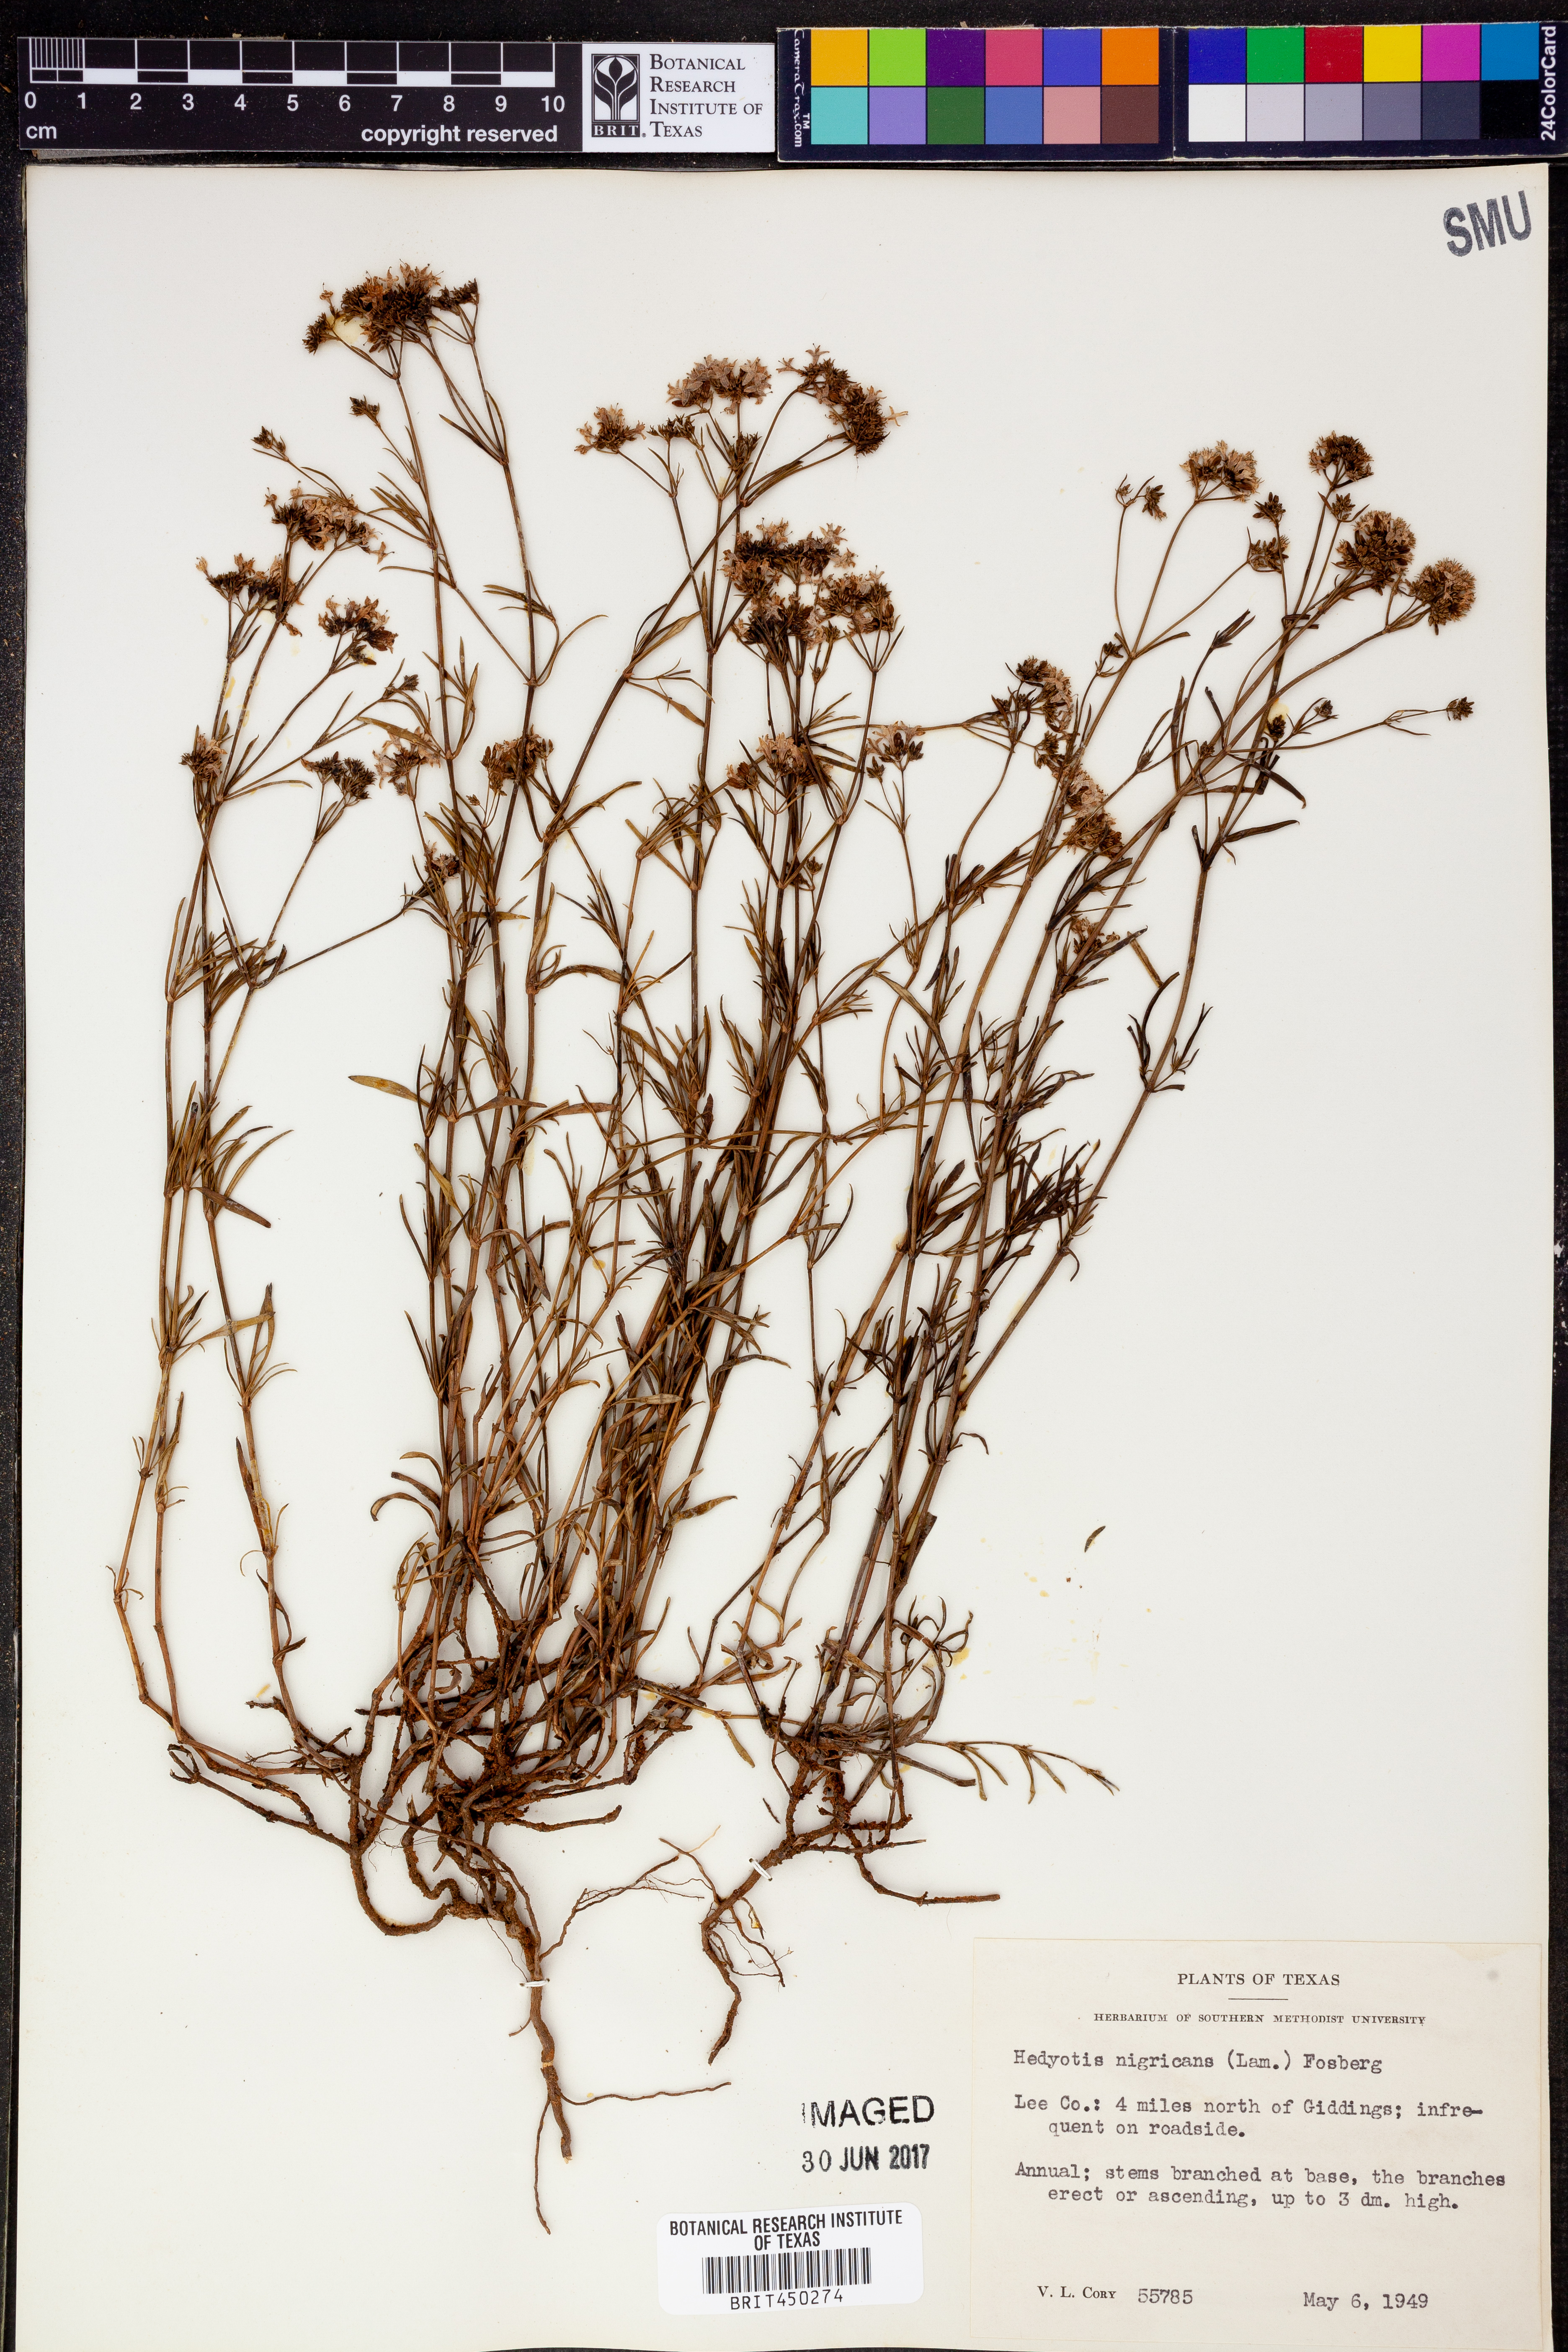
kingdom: Plantae
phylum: Tracheophyta
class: Magnoliopsida
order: Gentianales
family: Rubiaceae
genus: Stenaria
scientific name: Stenaria nigricans
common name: Diamondflowers
